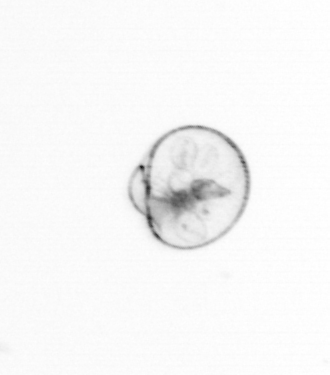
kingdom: Chromista
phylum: Myzozoa
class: Dinophyceae
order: Noctilucales
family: Noctilucaceae
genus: Noctiluca
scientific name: Noctiluca scintillans
